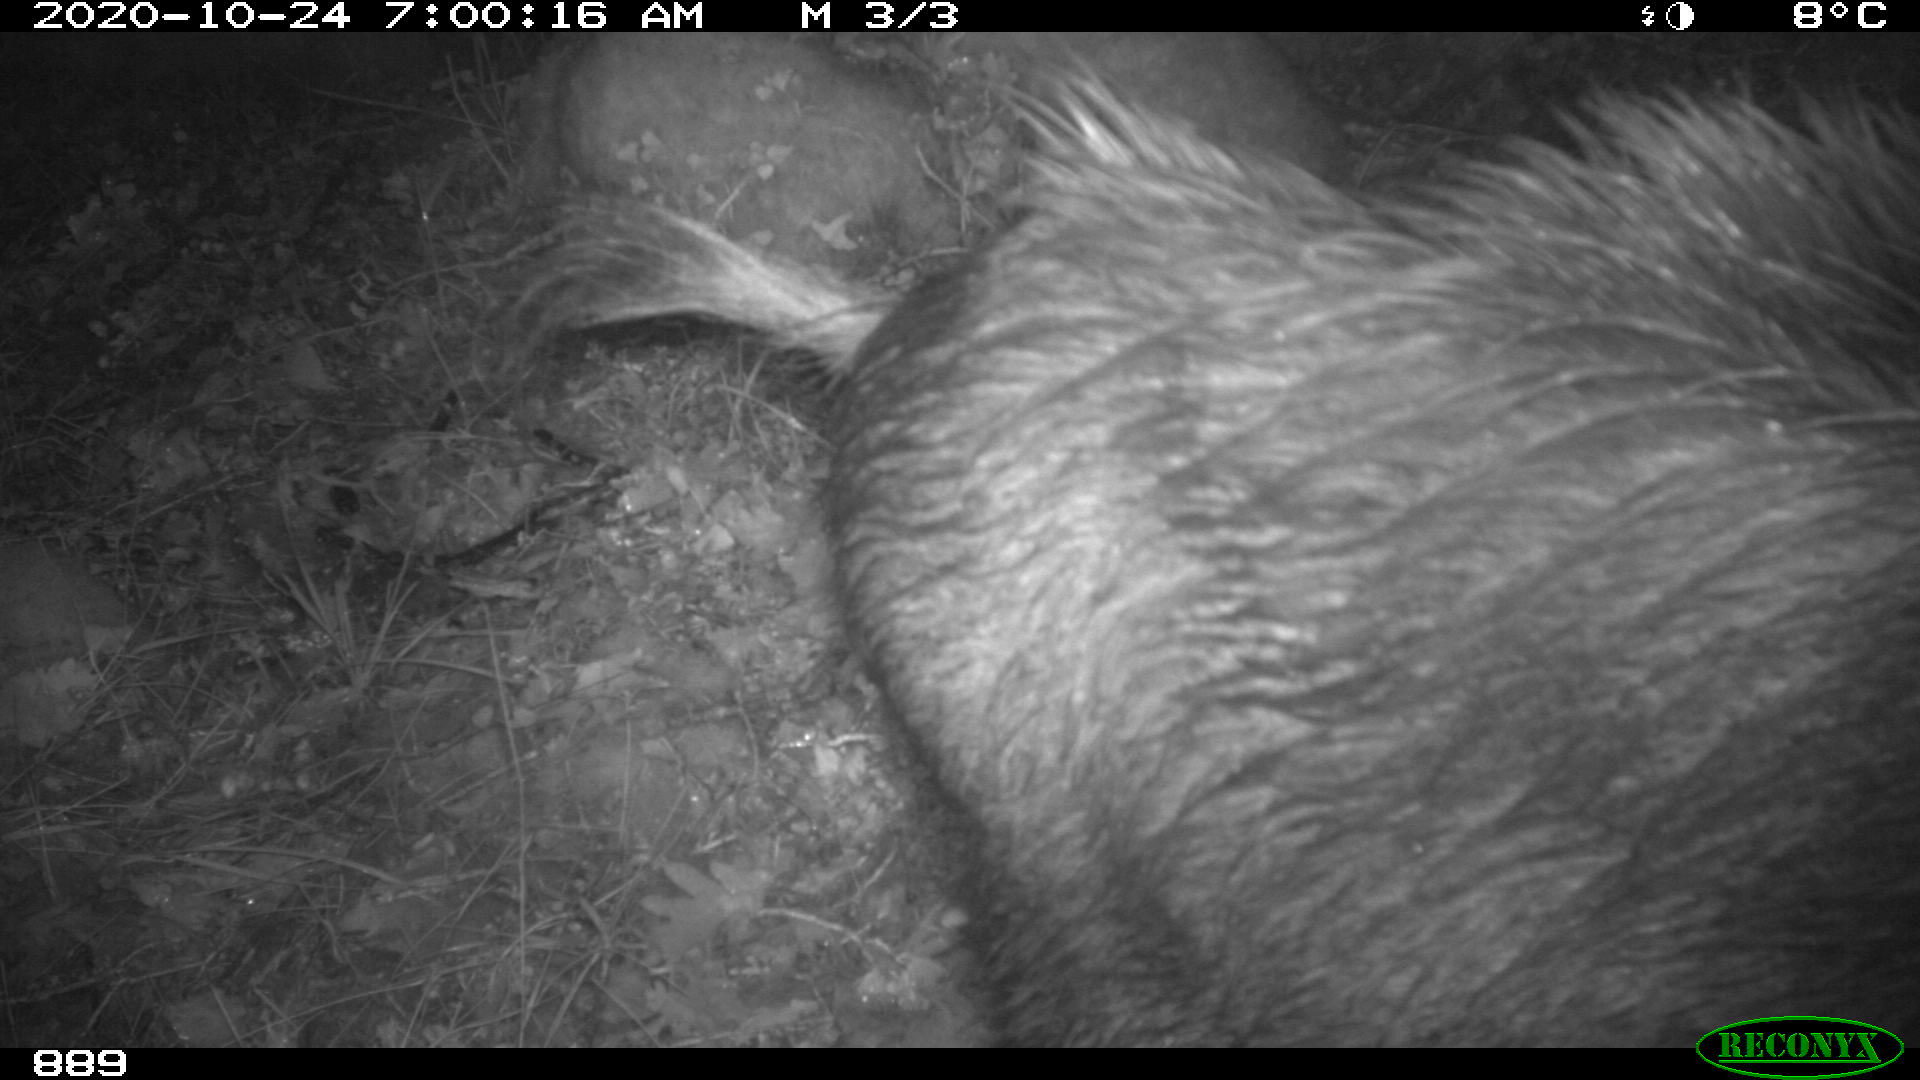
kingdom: Animalia
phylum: Chordata
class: Mammalia
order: Artiodactyla
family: Suidae
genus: Sus
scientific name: Sus scrofa
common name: Wild boar
